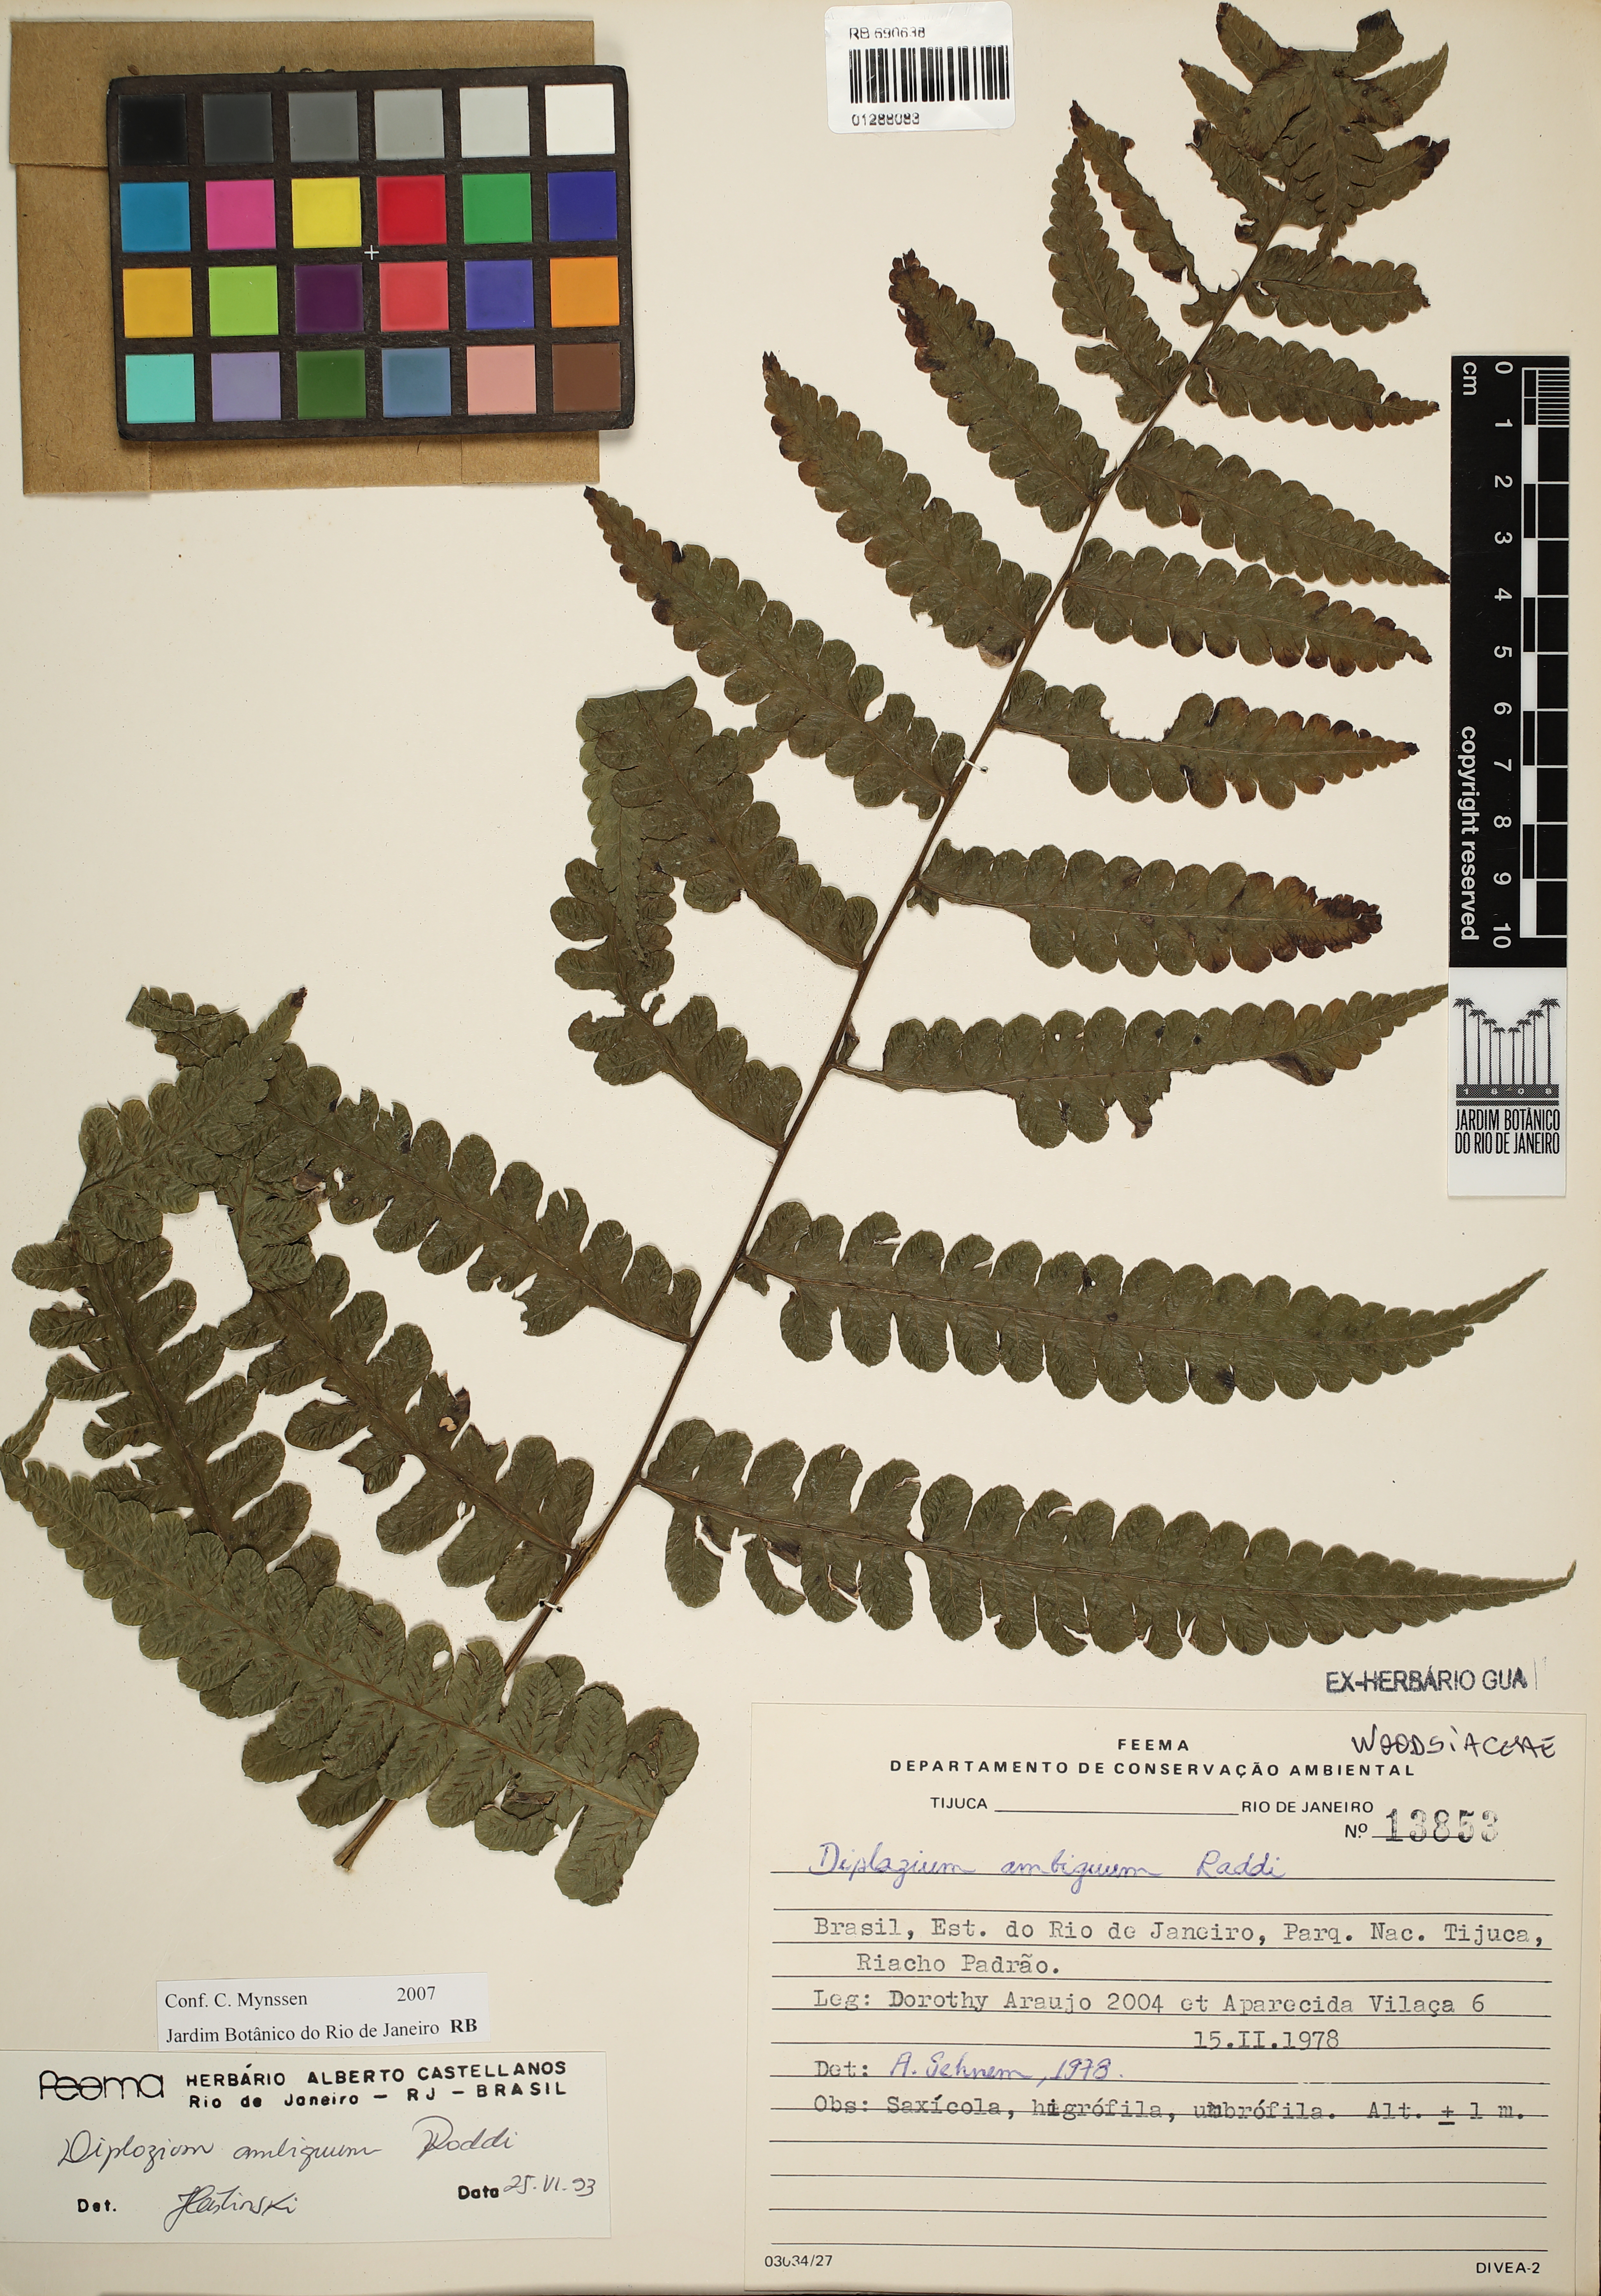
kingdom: Plantae
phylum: Tracheophyta
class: Polypodiopsida
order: Polypodiales
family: Athyriaceae
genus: Diplazium
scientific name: Diplazium ambiguum
